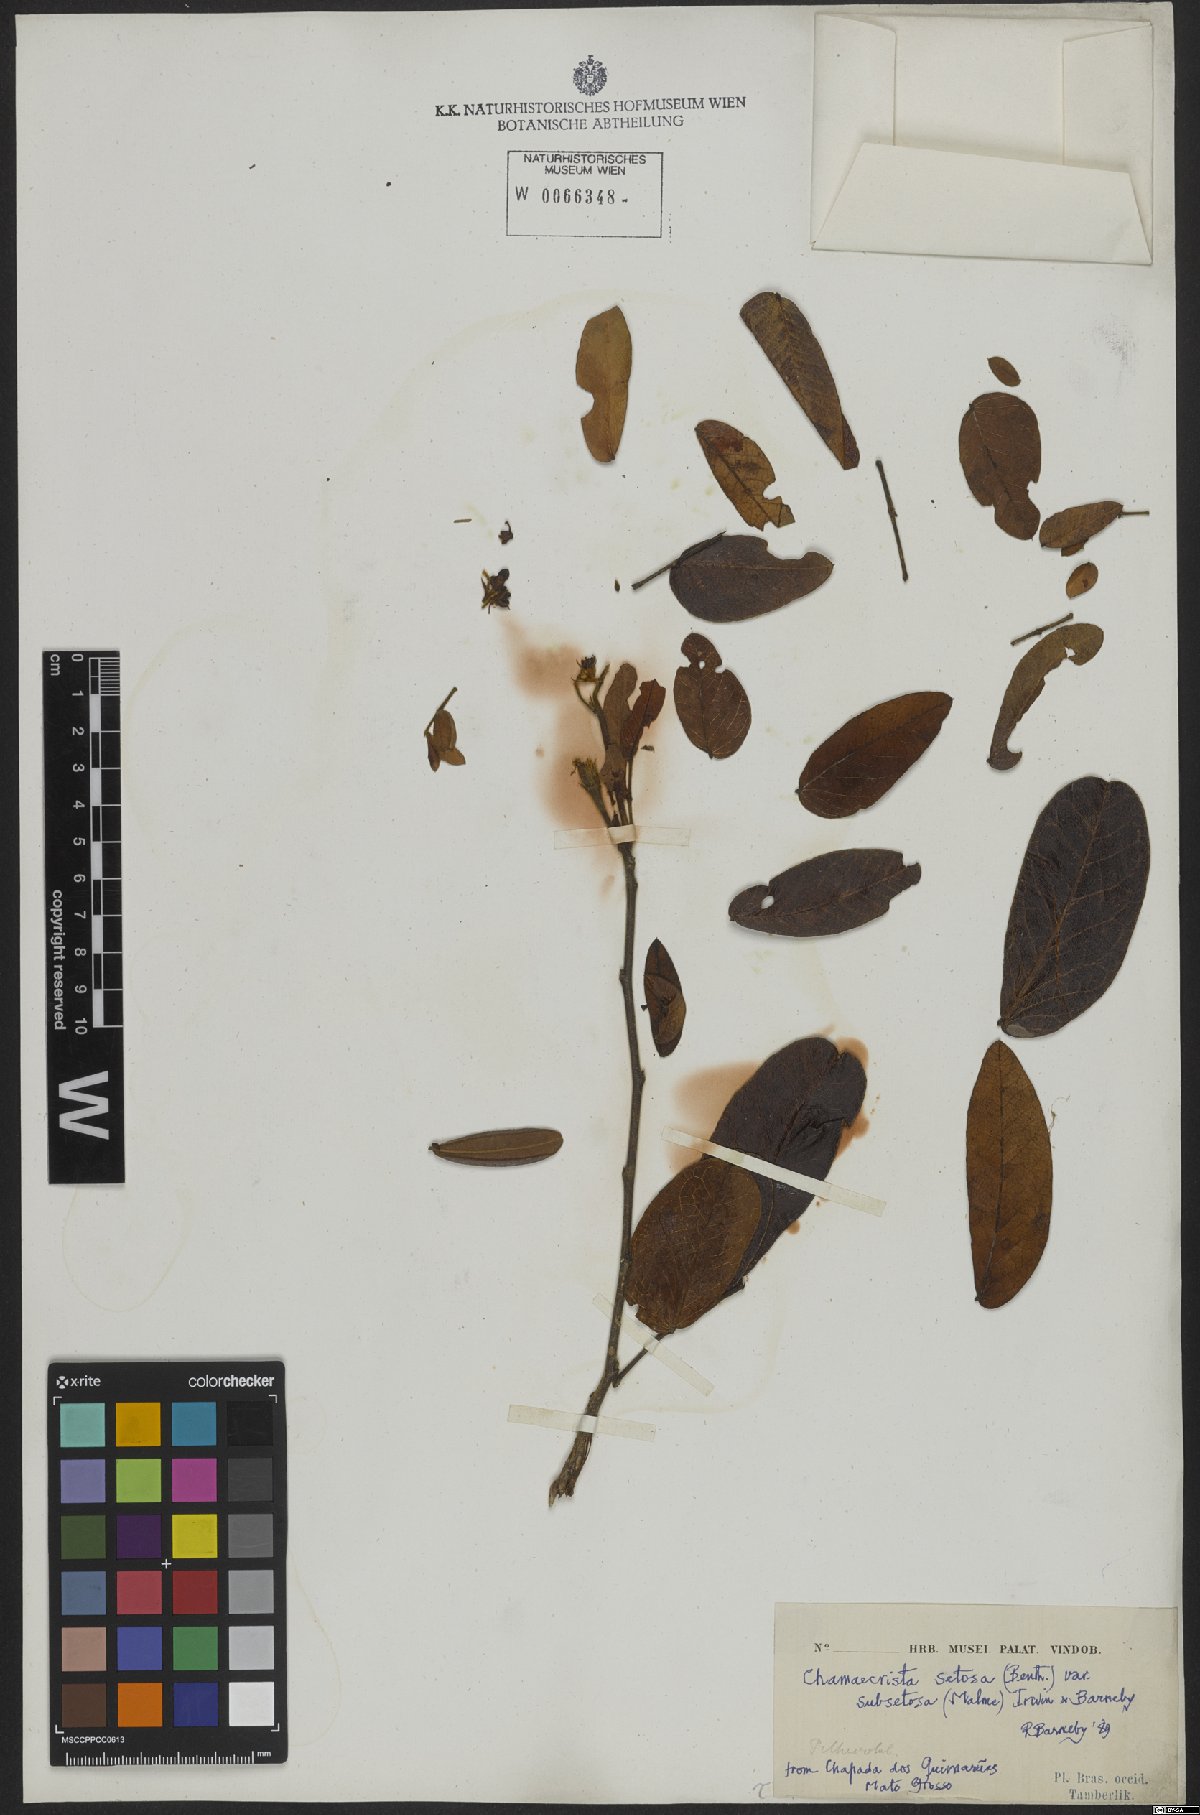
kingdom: Plantae
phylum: Tracheophyta
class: Magnoliopsida
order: Fabales
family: Fabaceae
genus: Chamaecrista
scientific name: Chamaecrista setosa
